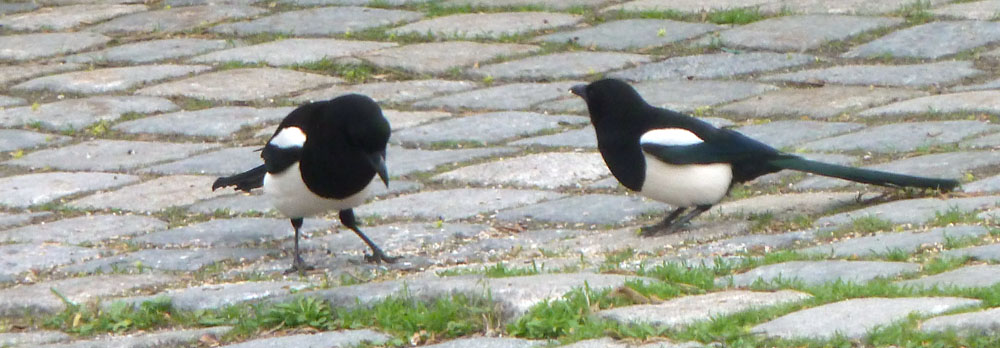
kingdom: Animalia
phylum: Chordata
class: Aves
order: Passeriformes
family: Corvidae
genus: Pica
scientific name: Pica pica
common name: Eurasian magpie
